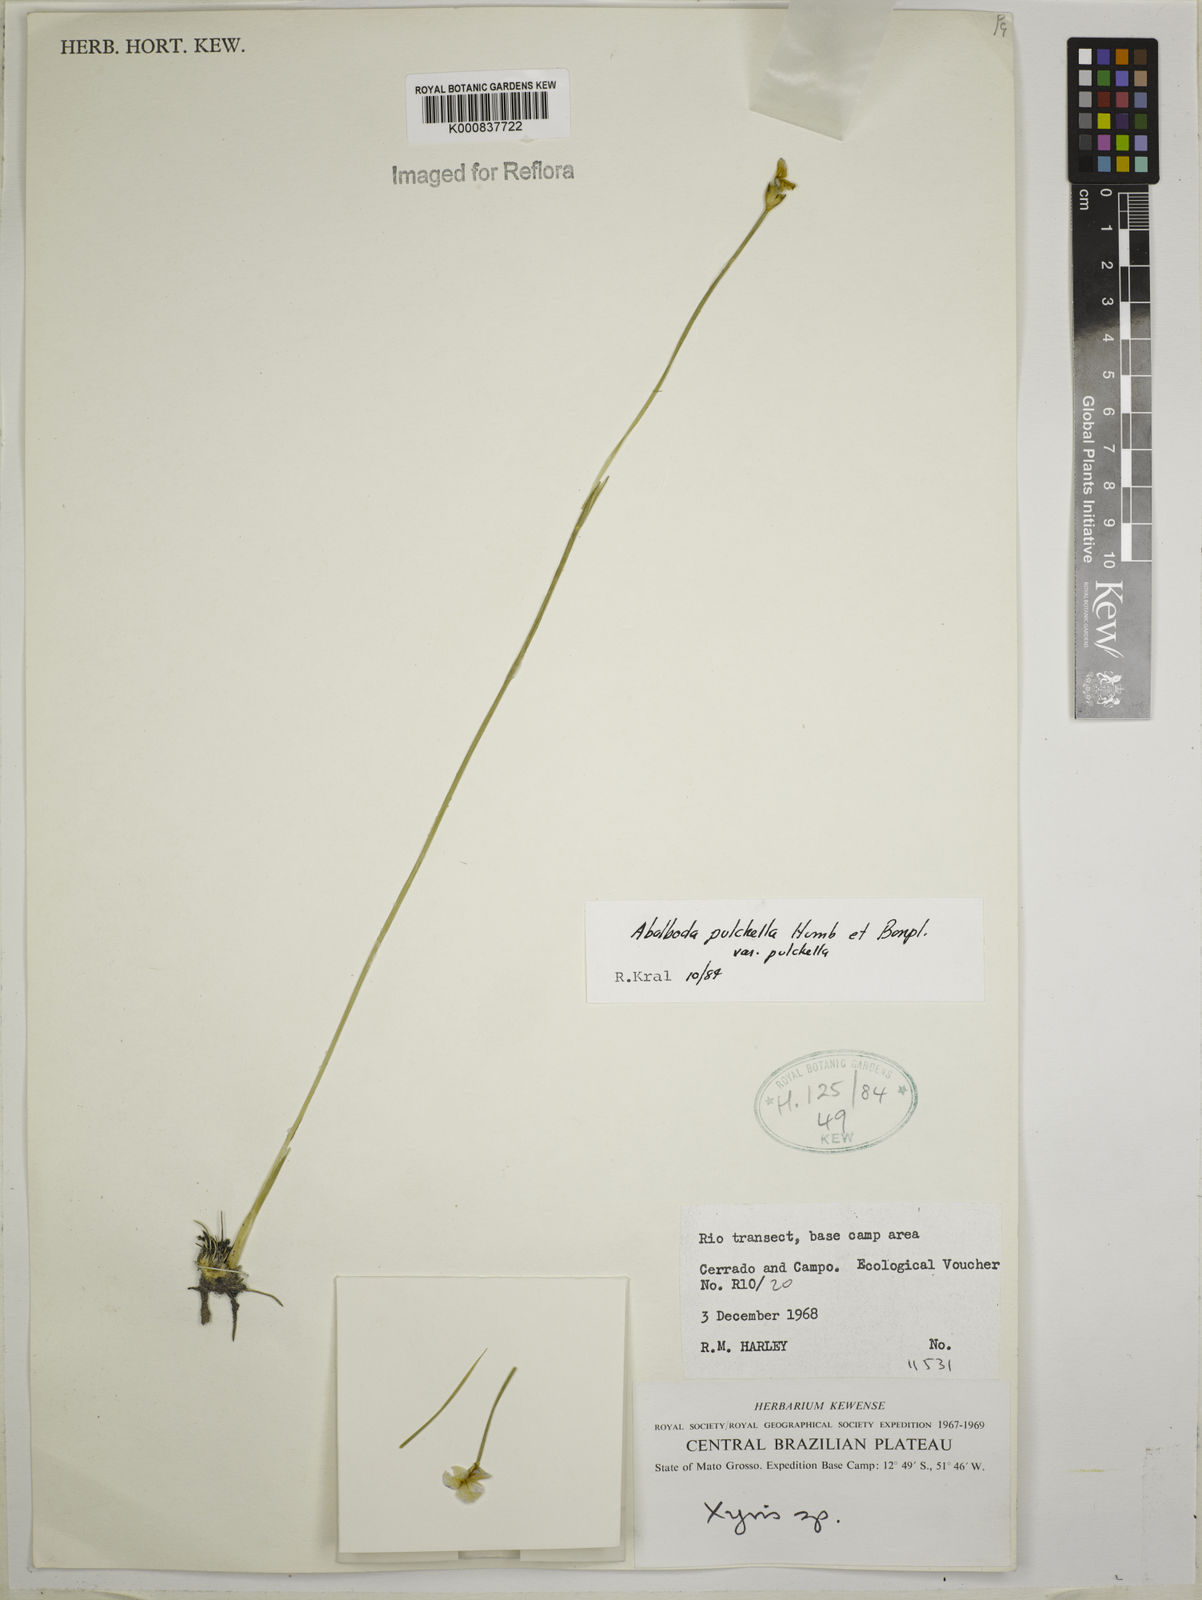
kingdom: Plantae
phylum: Tracheophyta
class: Liliopsida
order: Poales
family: Xyridaceae
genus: Abolboda
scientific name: Abolboda pulchella
